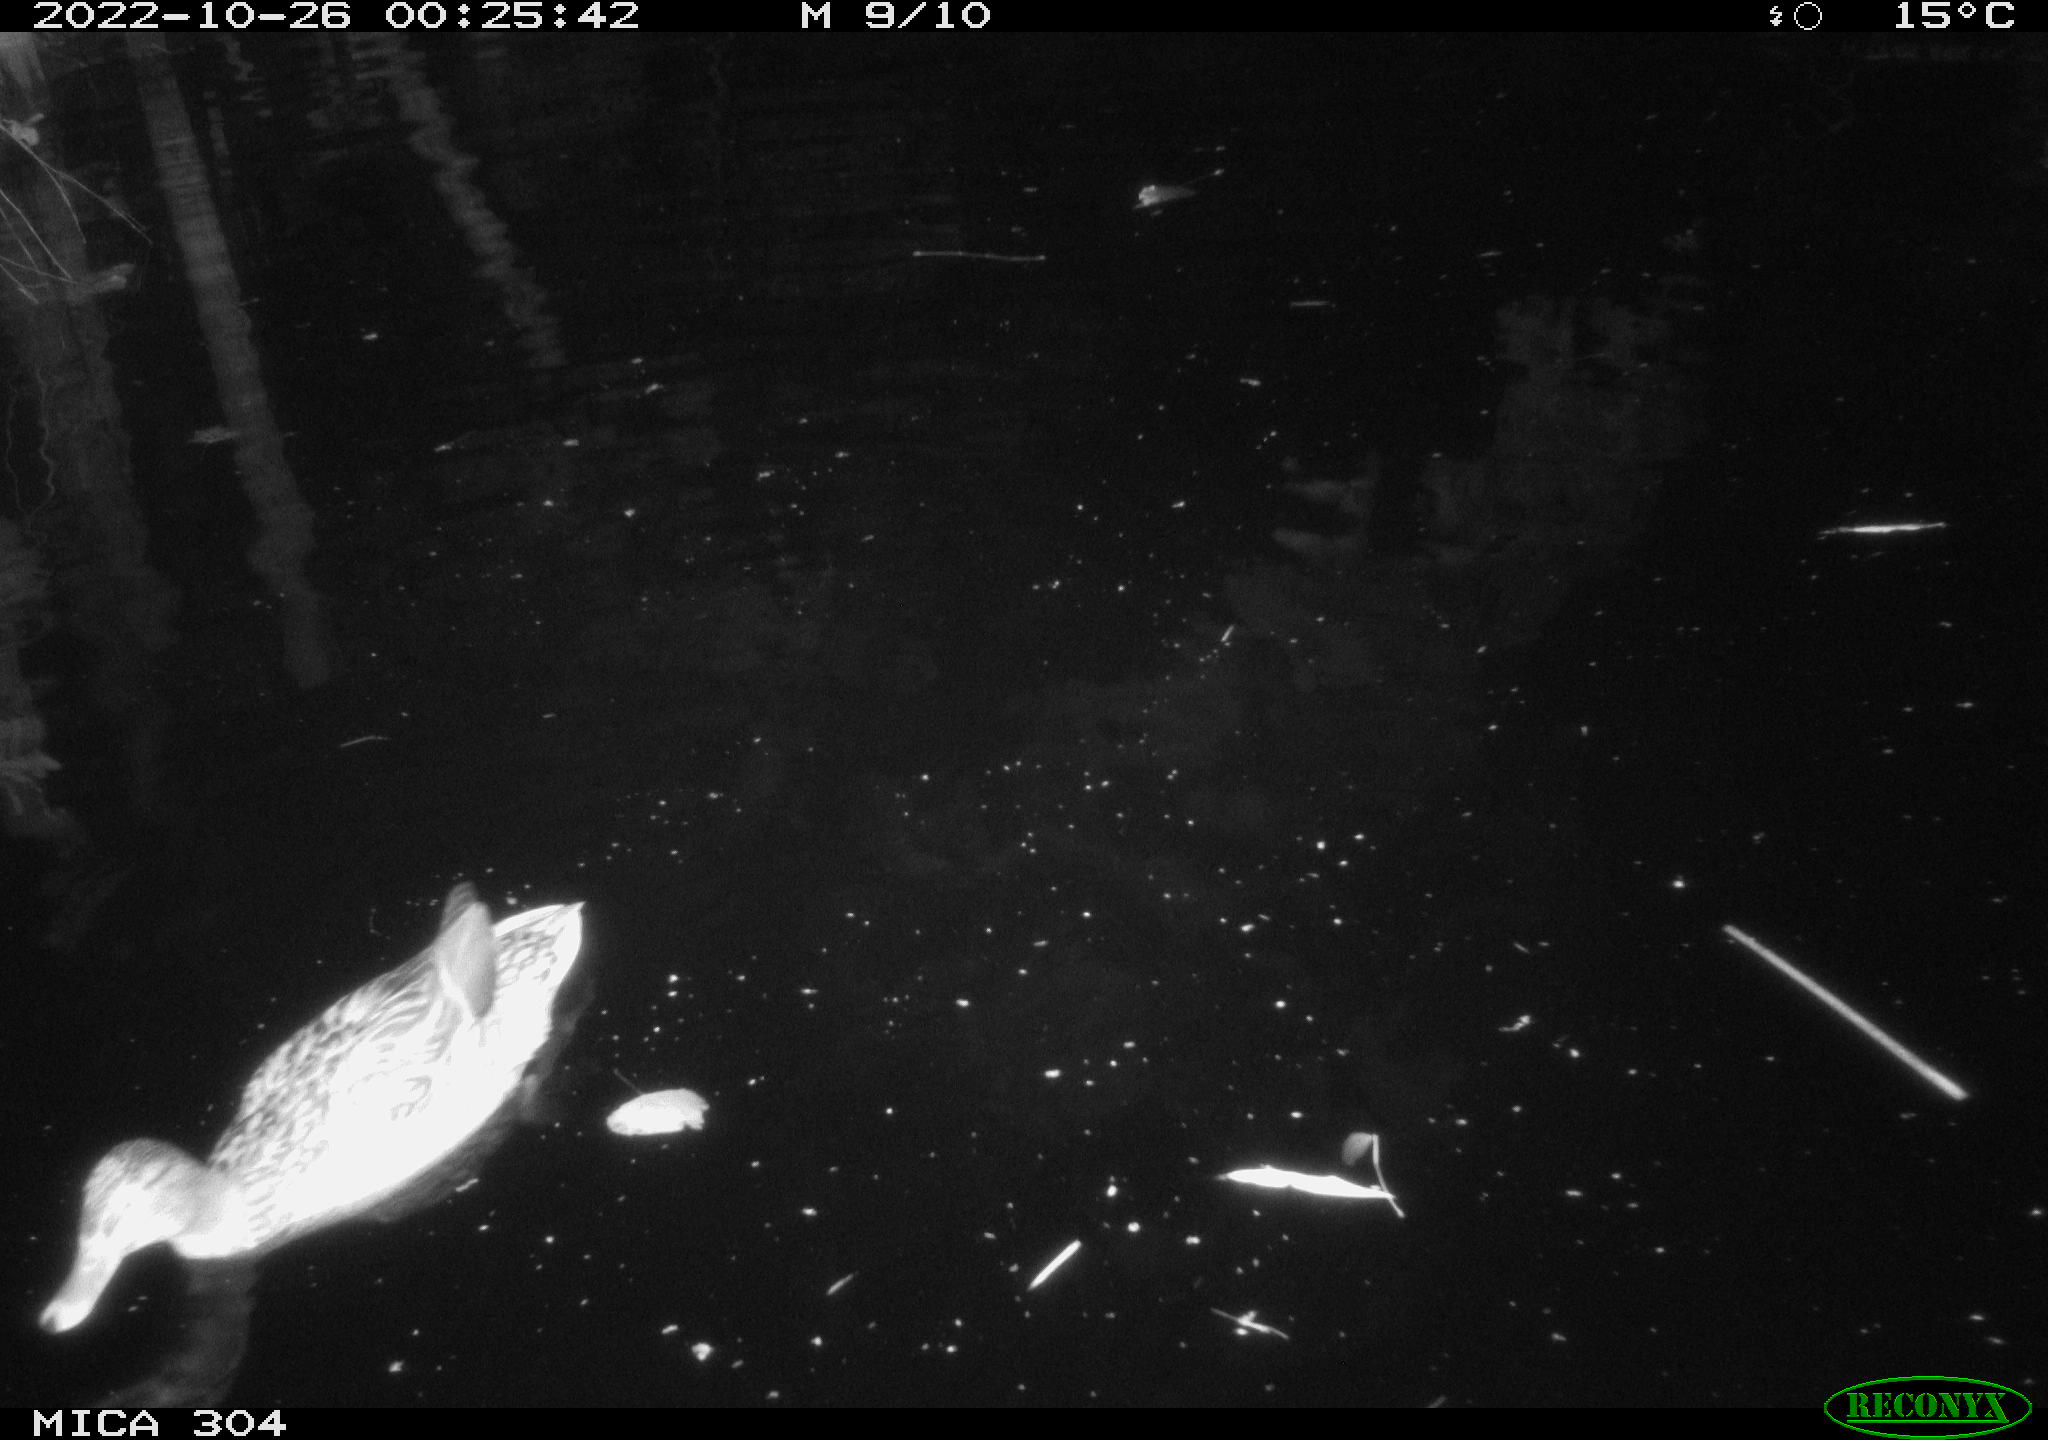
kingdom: Animalia
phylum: Chordata
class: Mammalia
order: Rodentia
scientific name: Rodentia
